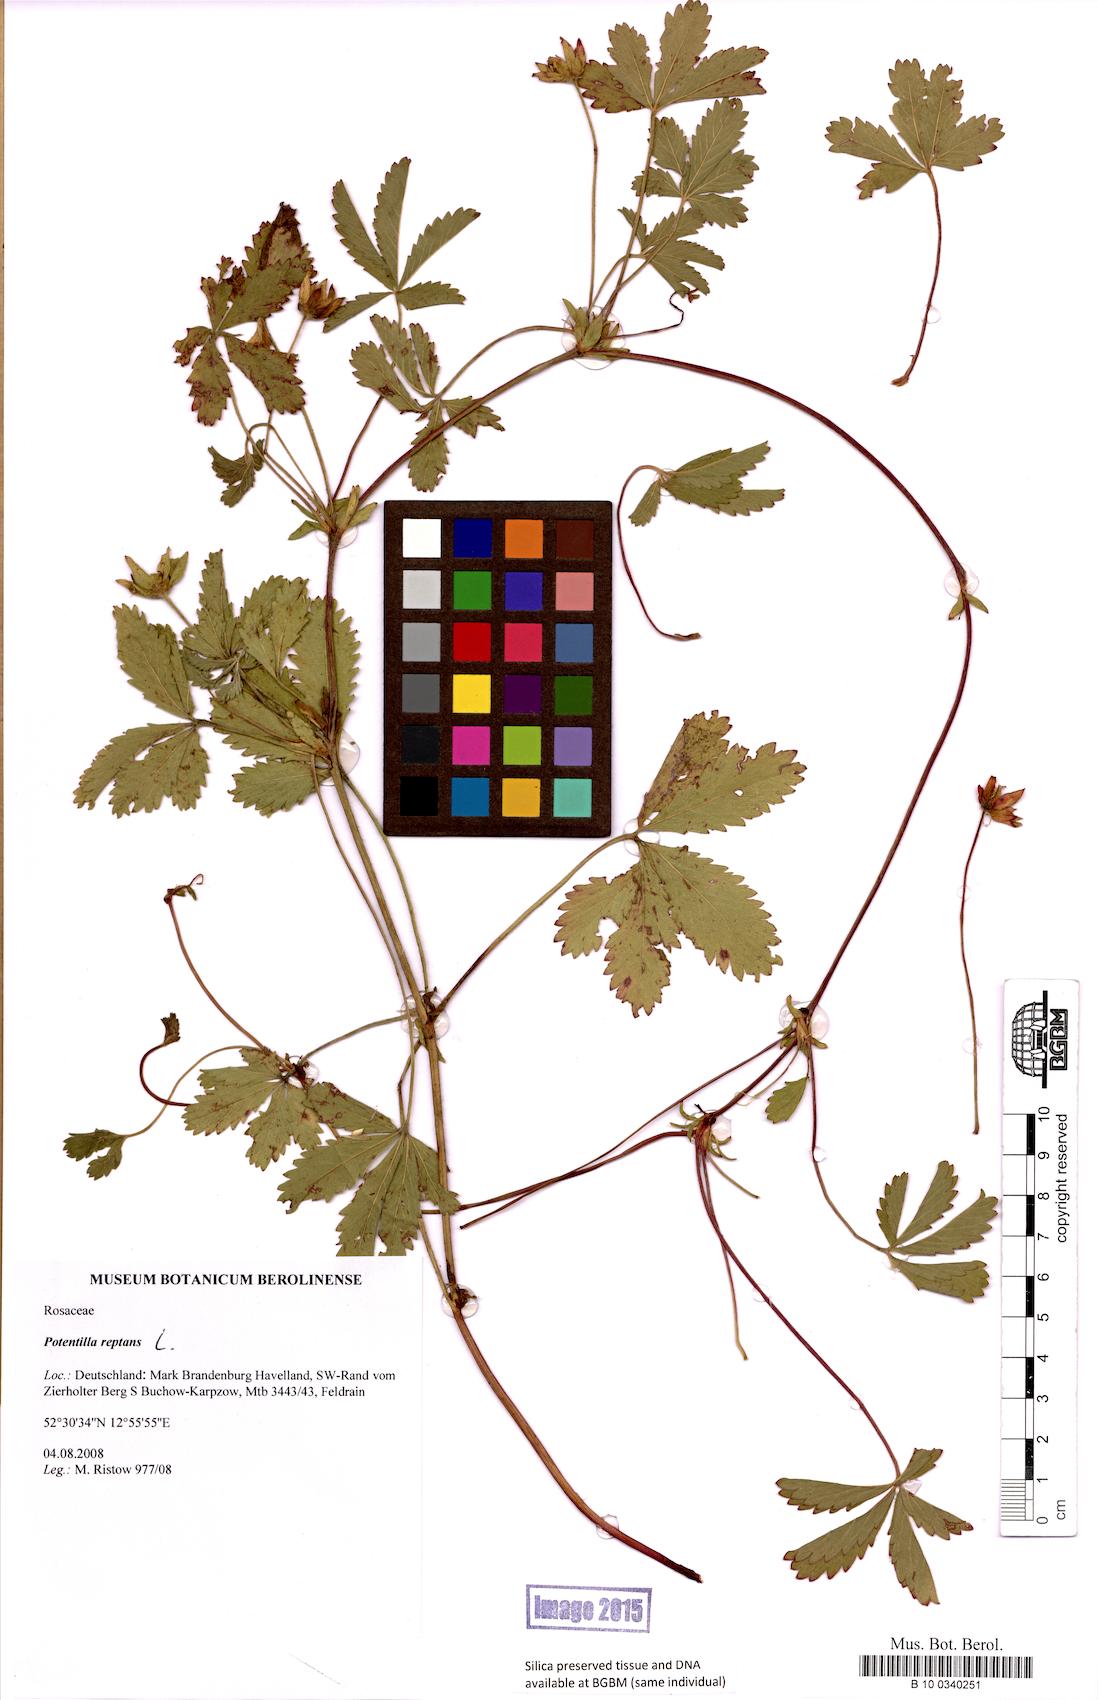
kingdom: Plantae
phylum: Tracheophyta
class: Magnoliopsida
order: Rosales
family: Rosaceae
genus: Potentilla
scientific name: Potentilla reptans
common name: Creeping cinquefoil
